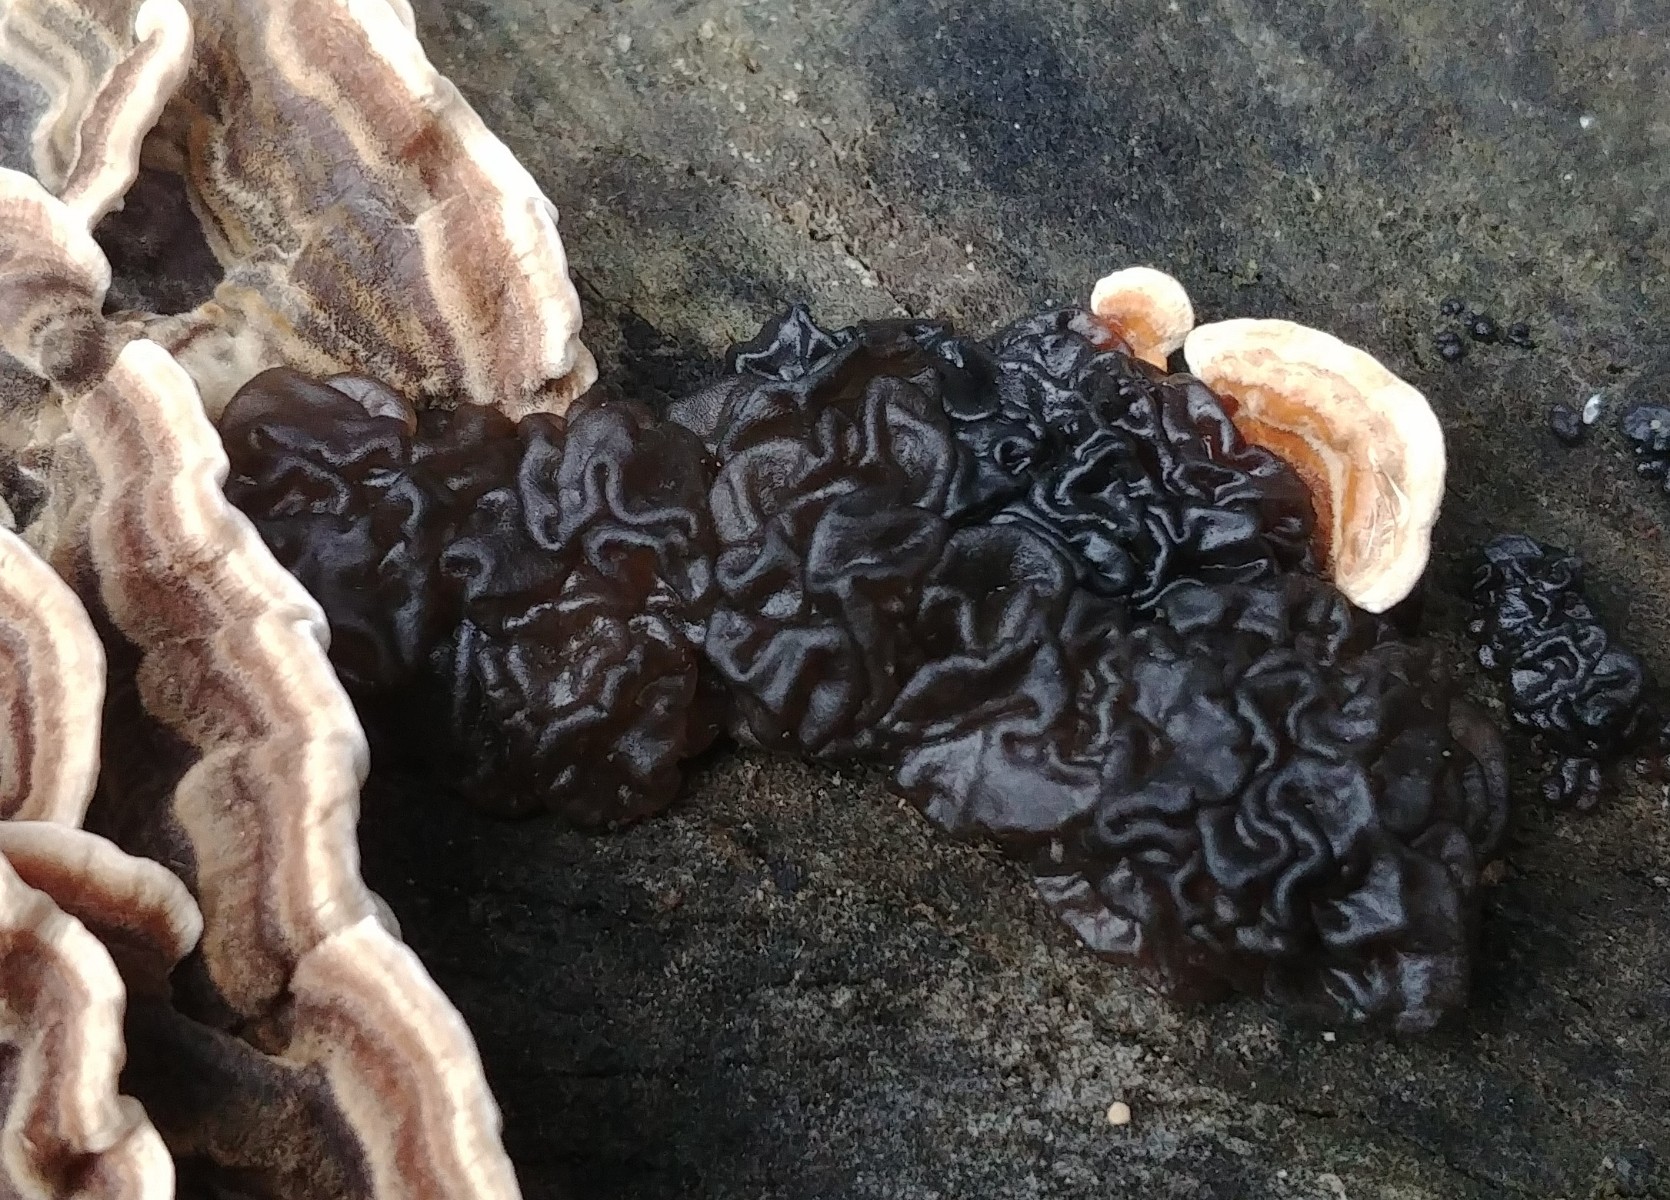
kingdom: Fungi
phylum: Basidiomycota
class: Agaricomycetes
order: Auriculariales
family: Auriculariaceae
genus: Exidia
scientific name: Exidia nigricans
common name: almindelig bævretop
